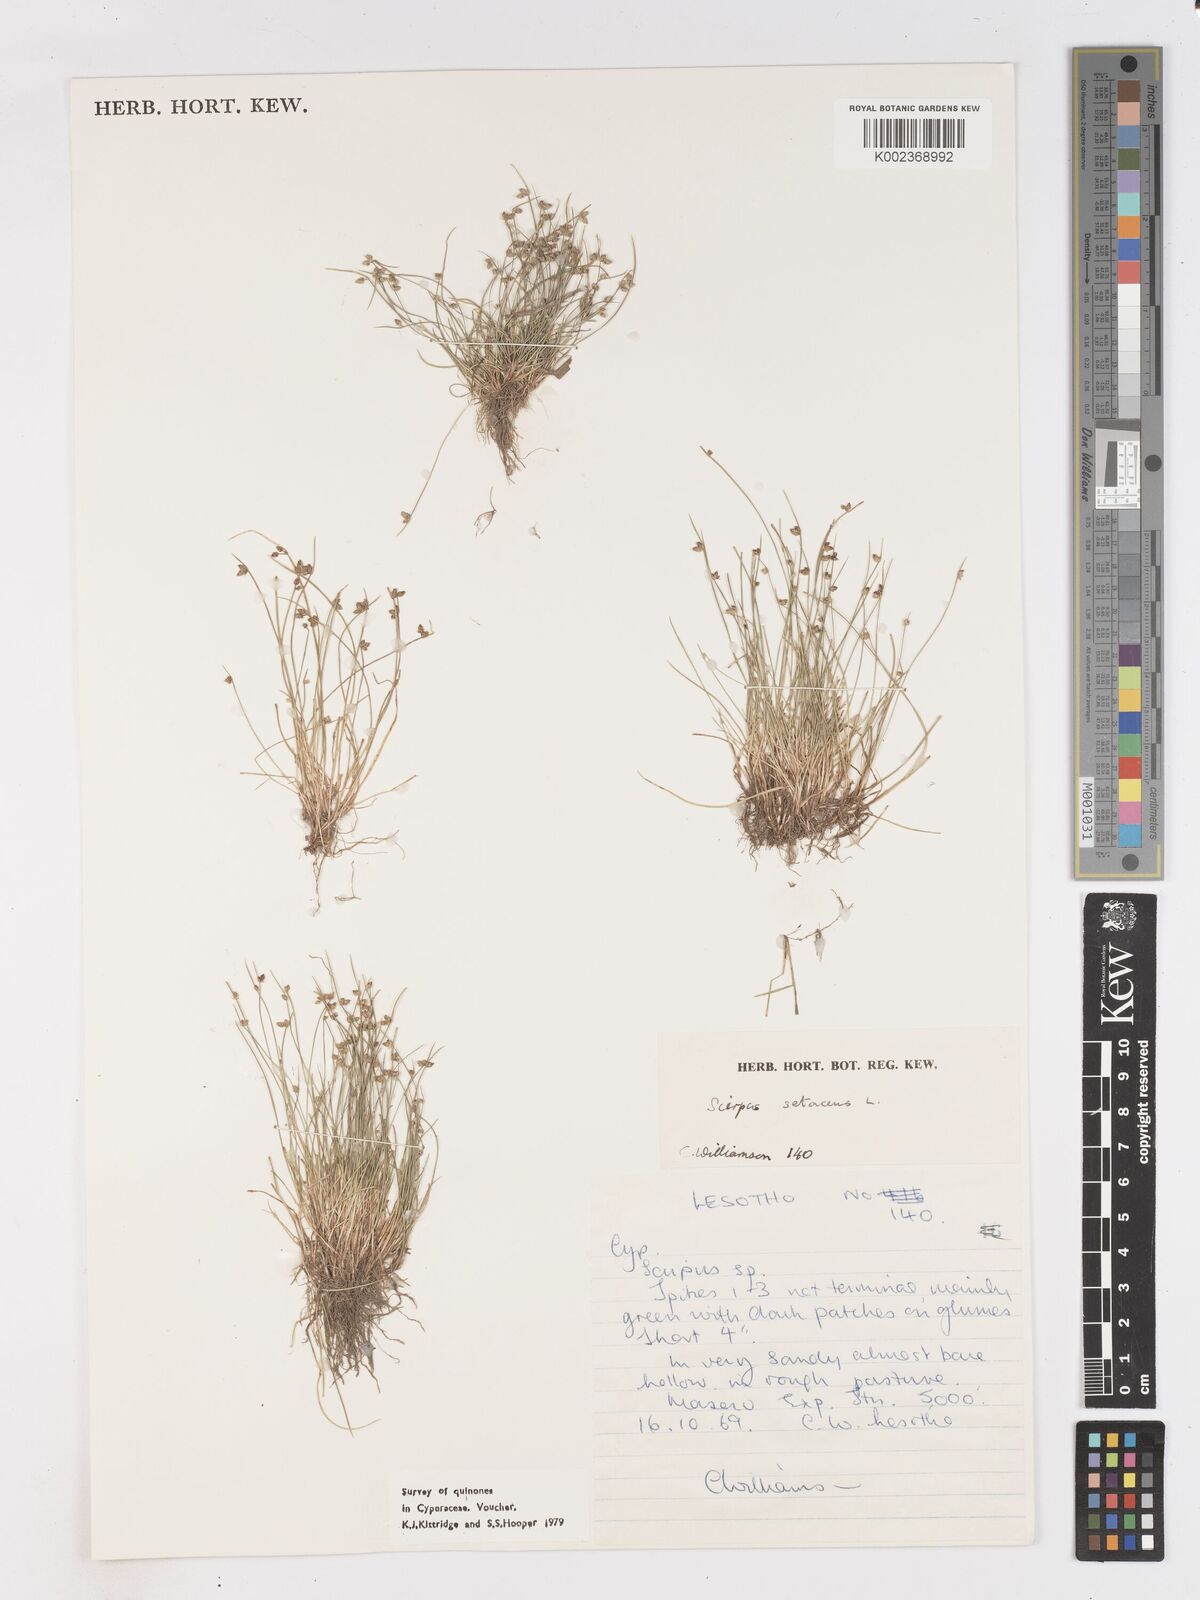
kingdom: Plantae
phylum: Tracheophyta
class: Liliopsida
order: Poales
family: Cyperaceae
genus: Isolepis
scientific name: Isolepis setacea
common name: Bristle club-rush
